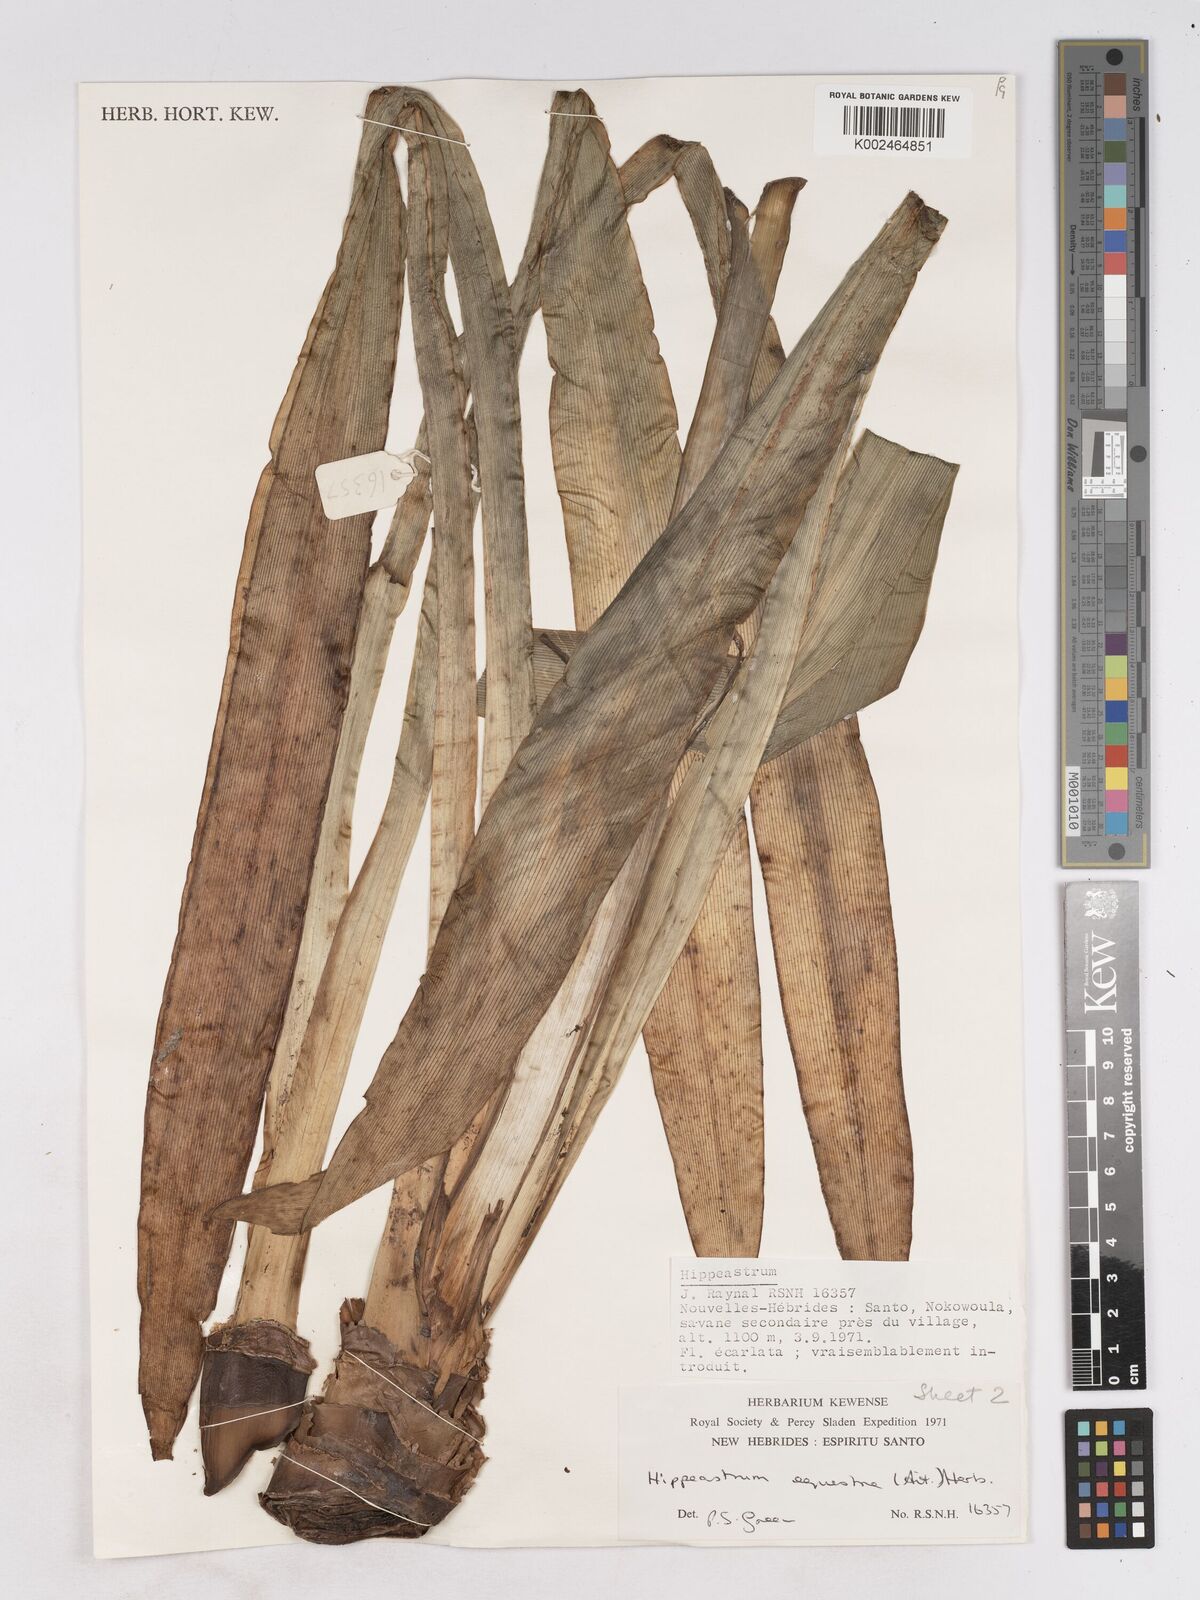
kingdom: Plantae
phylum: Tracheophyta
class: Liliopsida
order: Asparagales
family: Amaryllidaceae
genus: Hippeastrum
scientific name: Hippeastrum puniceum
